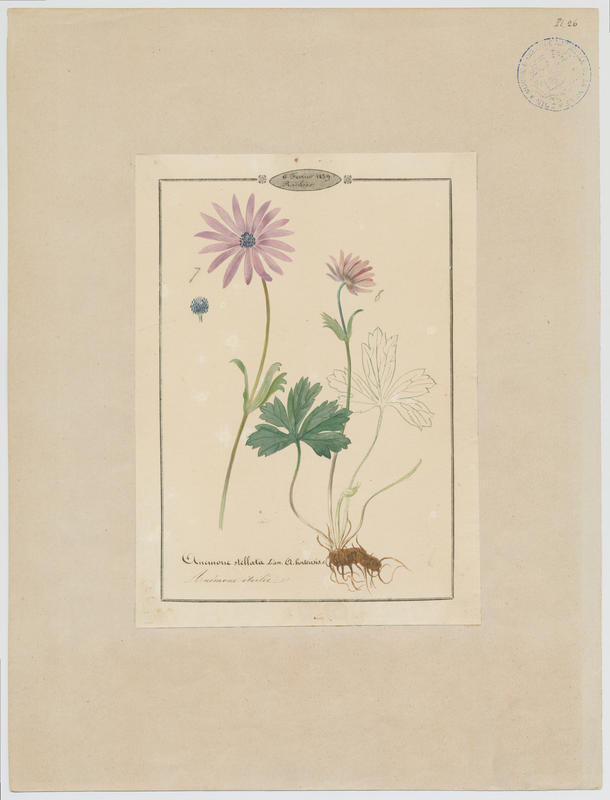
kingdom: Plantae
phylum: Tracheophyta
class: Magnoliopsida
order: Ranunculales
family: Ranunculaceae
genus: Anemone
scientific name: Anemone hortensis
